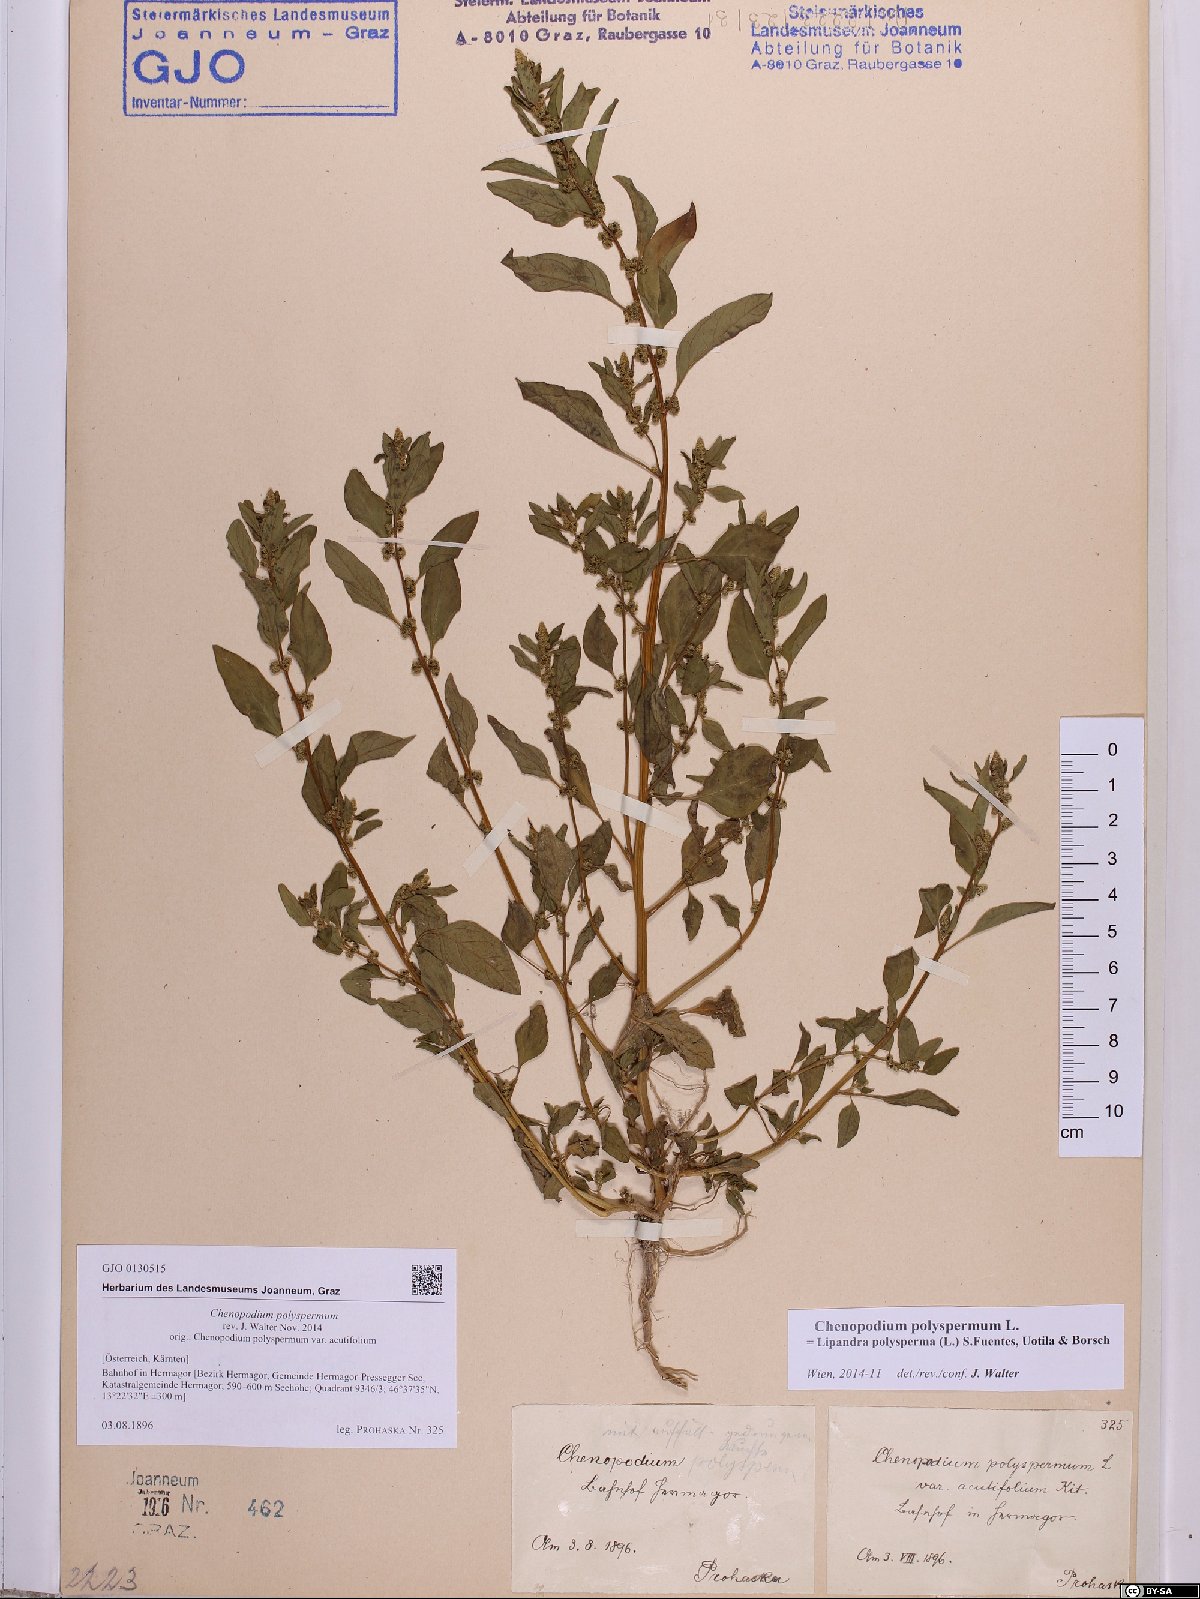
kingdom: Plantae
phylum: Tracheophyta
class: Magnoliopsida
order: Caryophyllales
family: Amaranthaceae
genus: Lipandra
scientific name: Lipandra polysperma
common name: Many-seed goosefoot
